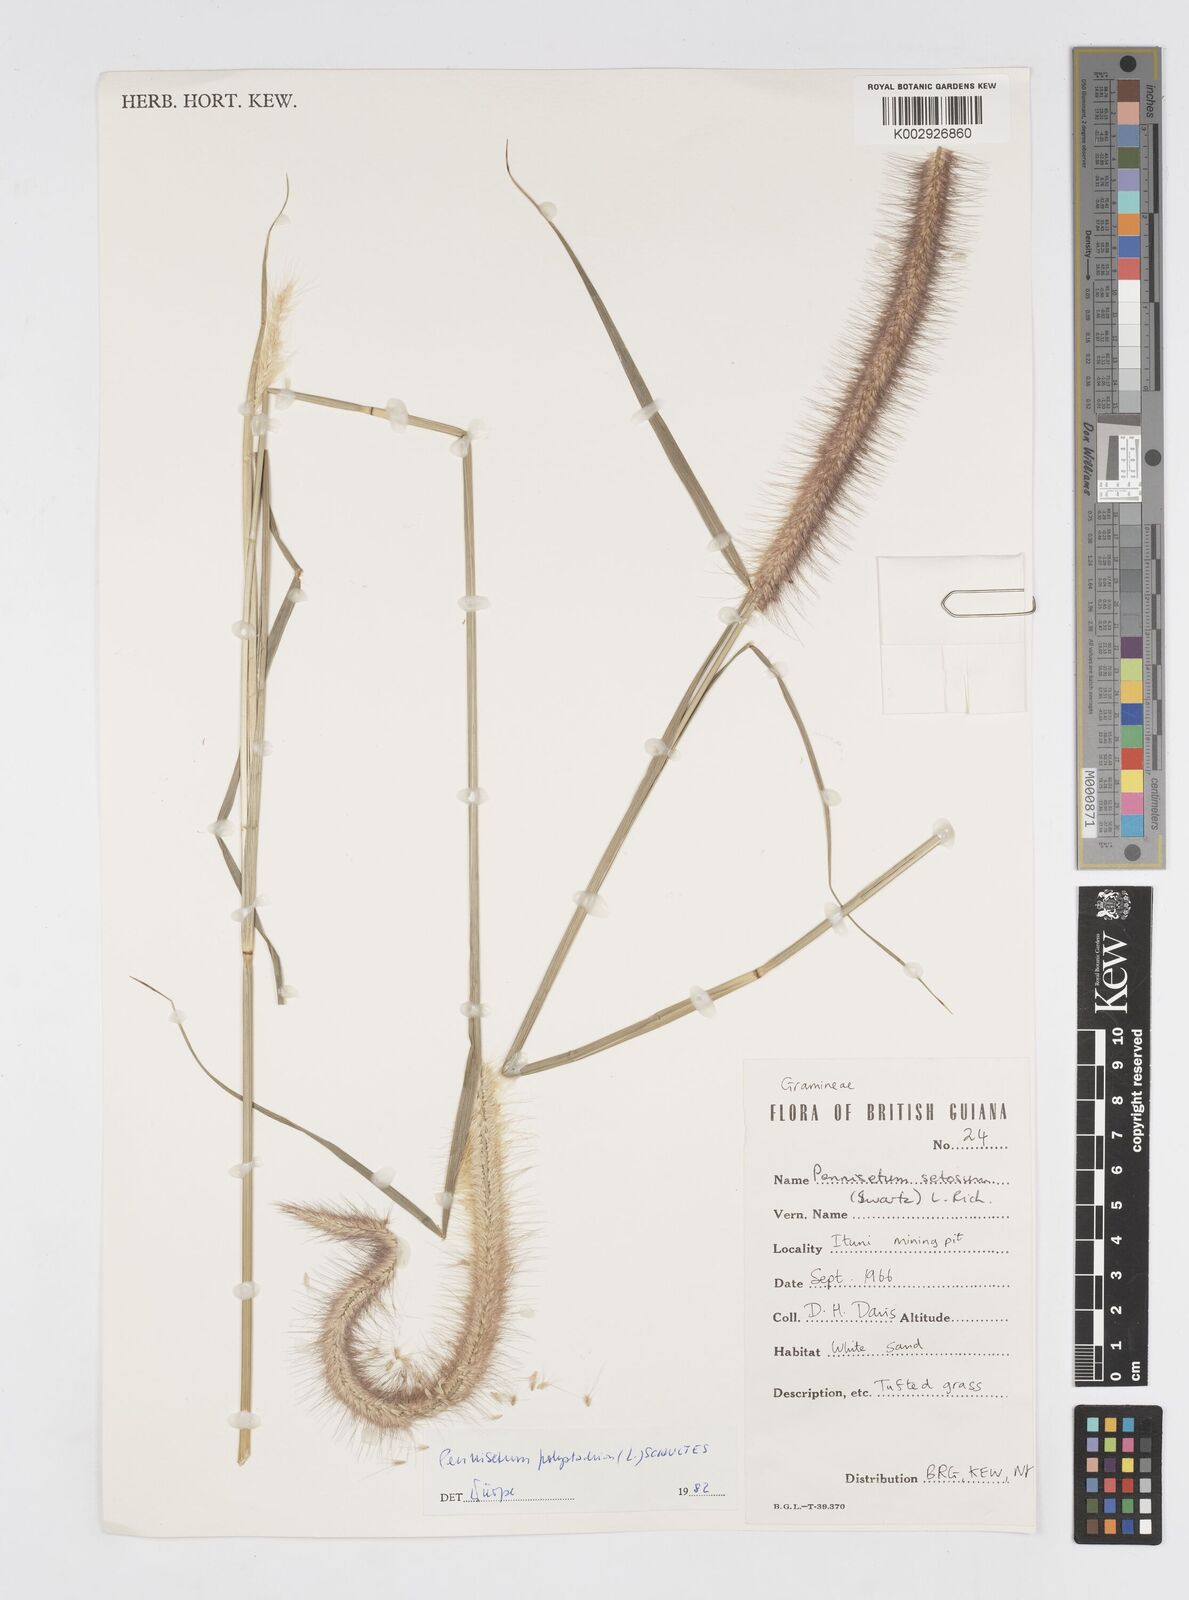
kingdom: Plantae
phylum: Tracheophyta
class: Liliopsida
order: Poales
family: Poaceae
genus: Cenchrus
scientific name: Cenchrus setosus
